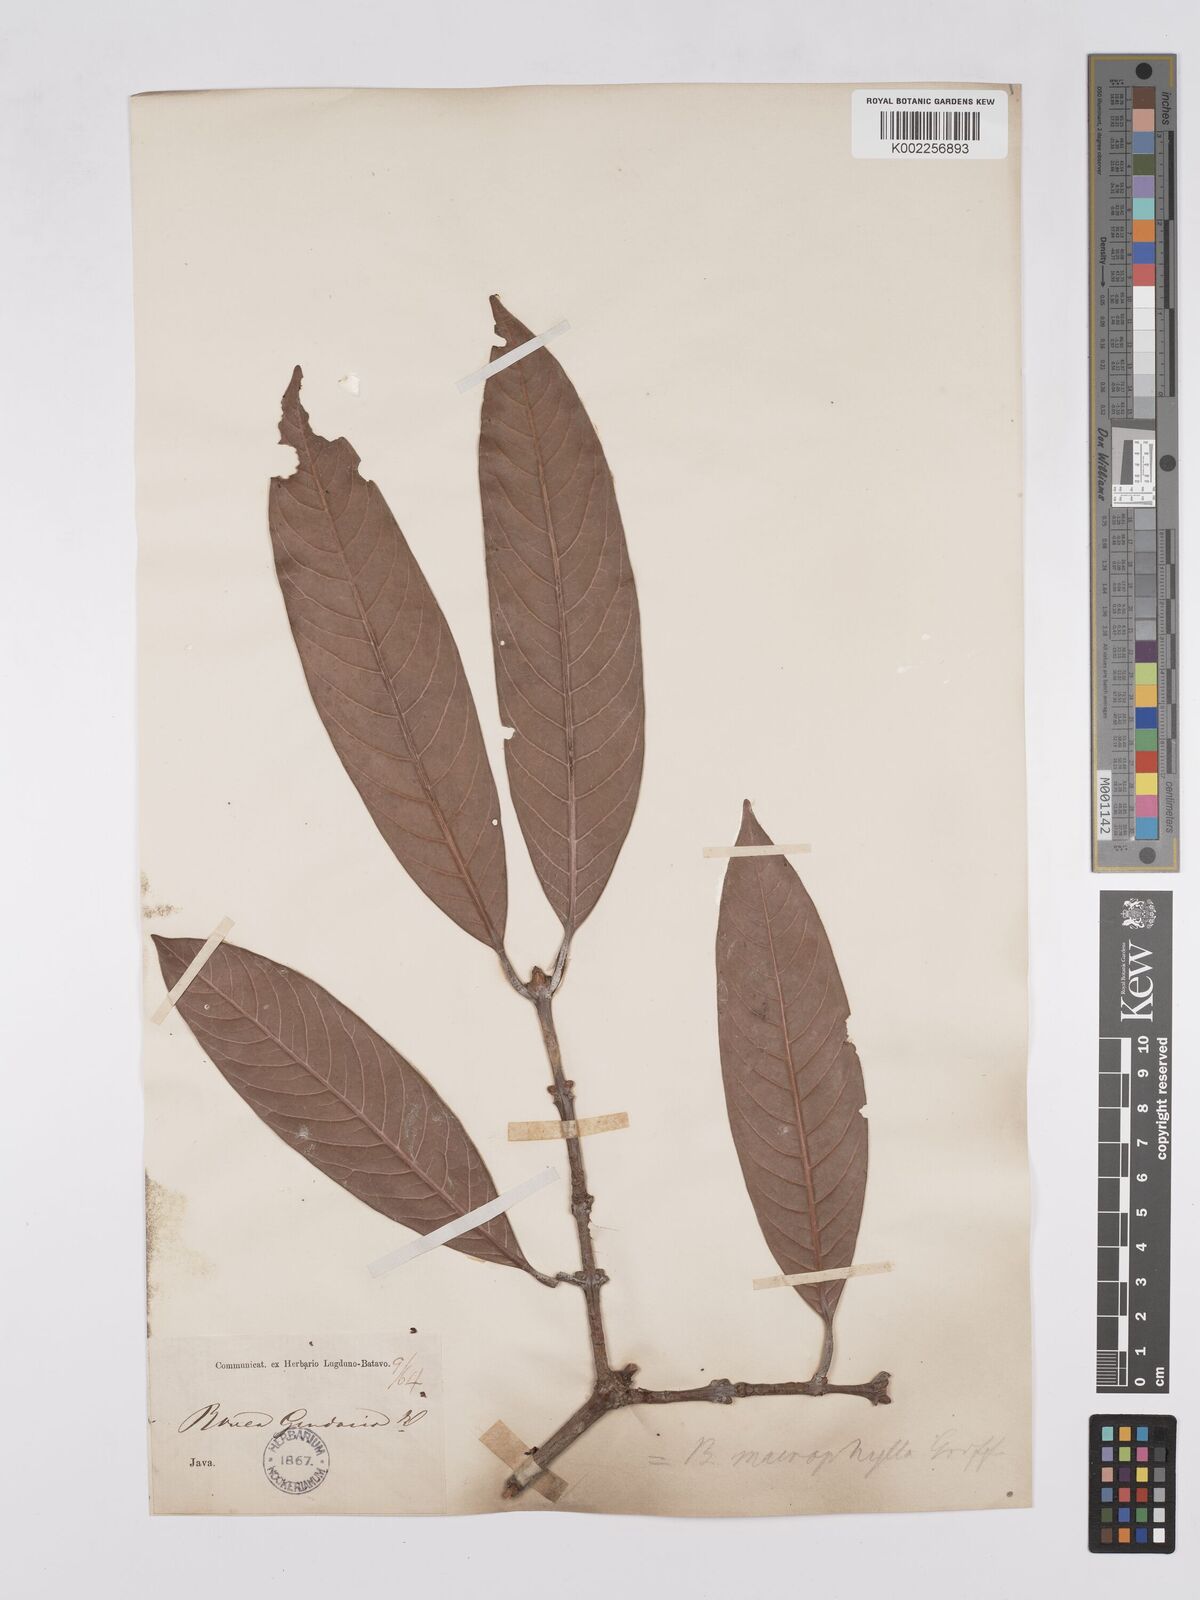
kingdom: Plantae
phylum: Tracheophyta
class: Magnoliopsida
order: Sapindales
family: Anacardiaceae
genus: Bouea
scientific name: Bouea macrophylla
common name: Gandaria
